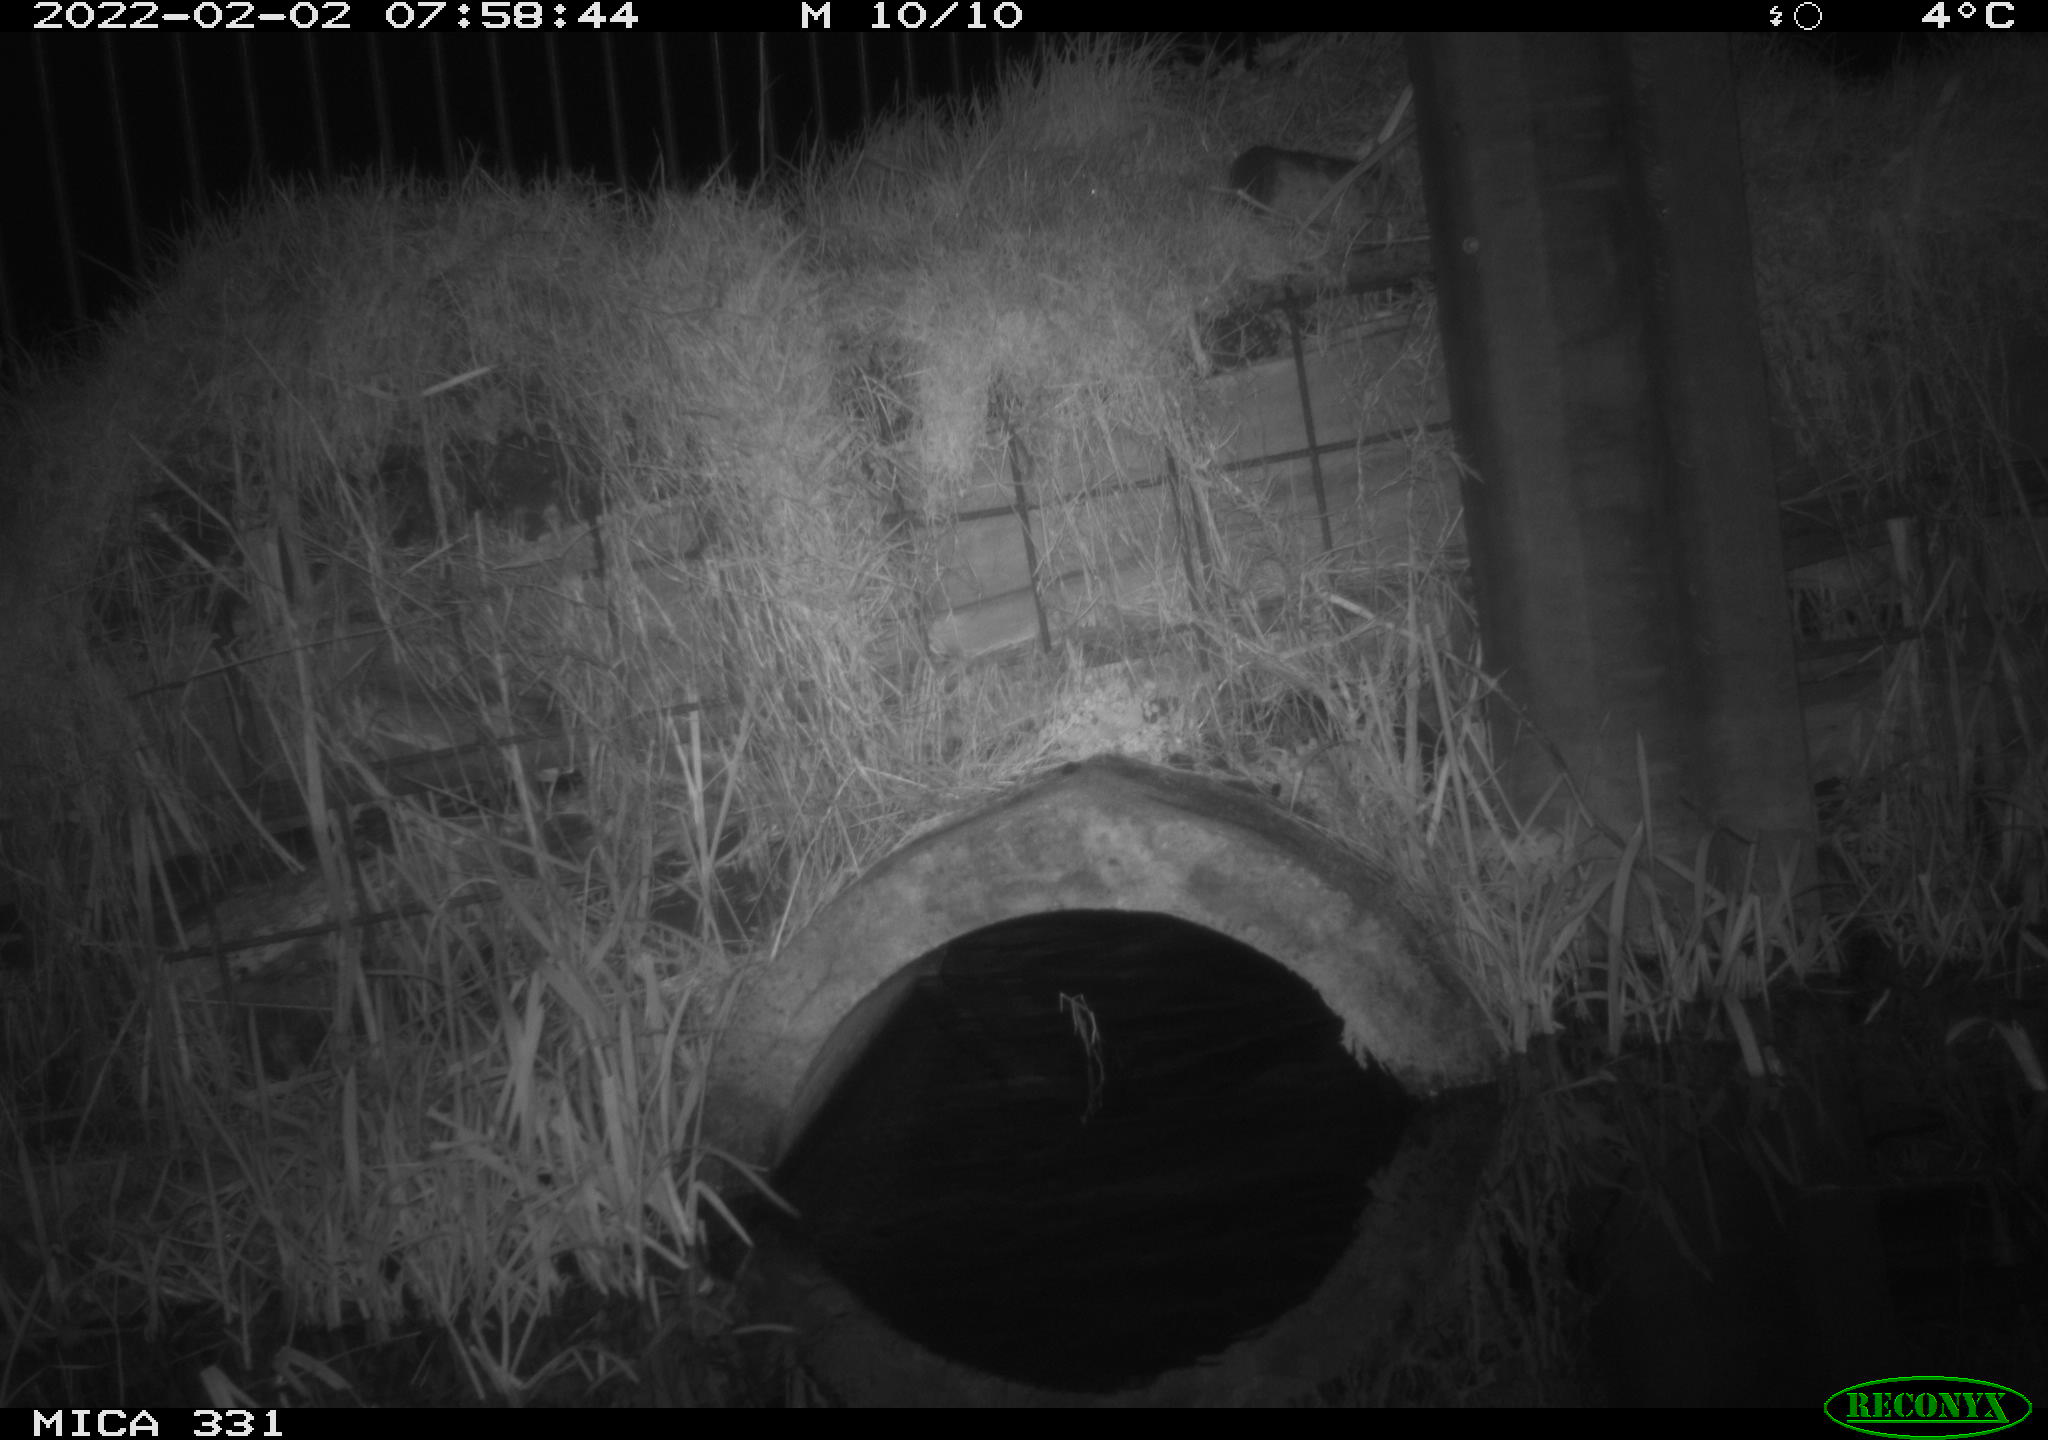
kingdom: Animalia
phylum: Chordata
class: Mammalia
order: Rodentia
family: Muridae
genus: Rattus
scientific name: Rattus norvegicus
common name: Brown rat
